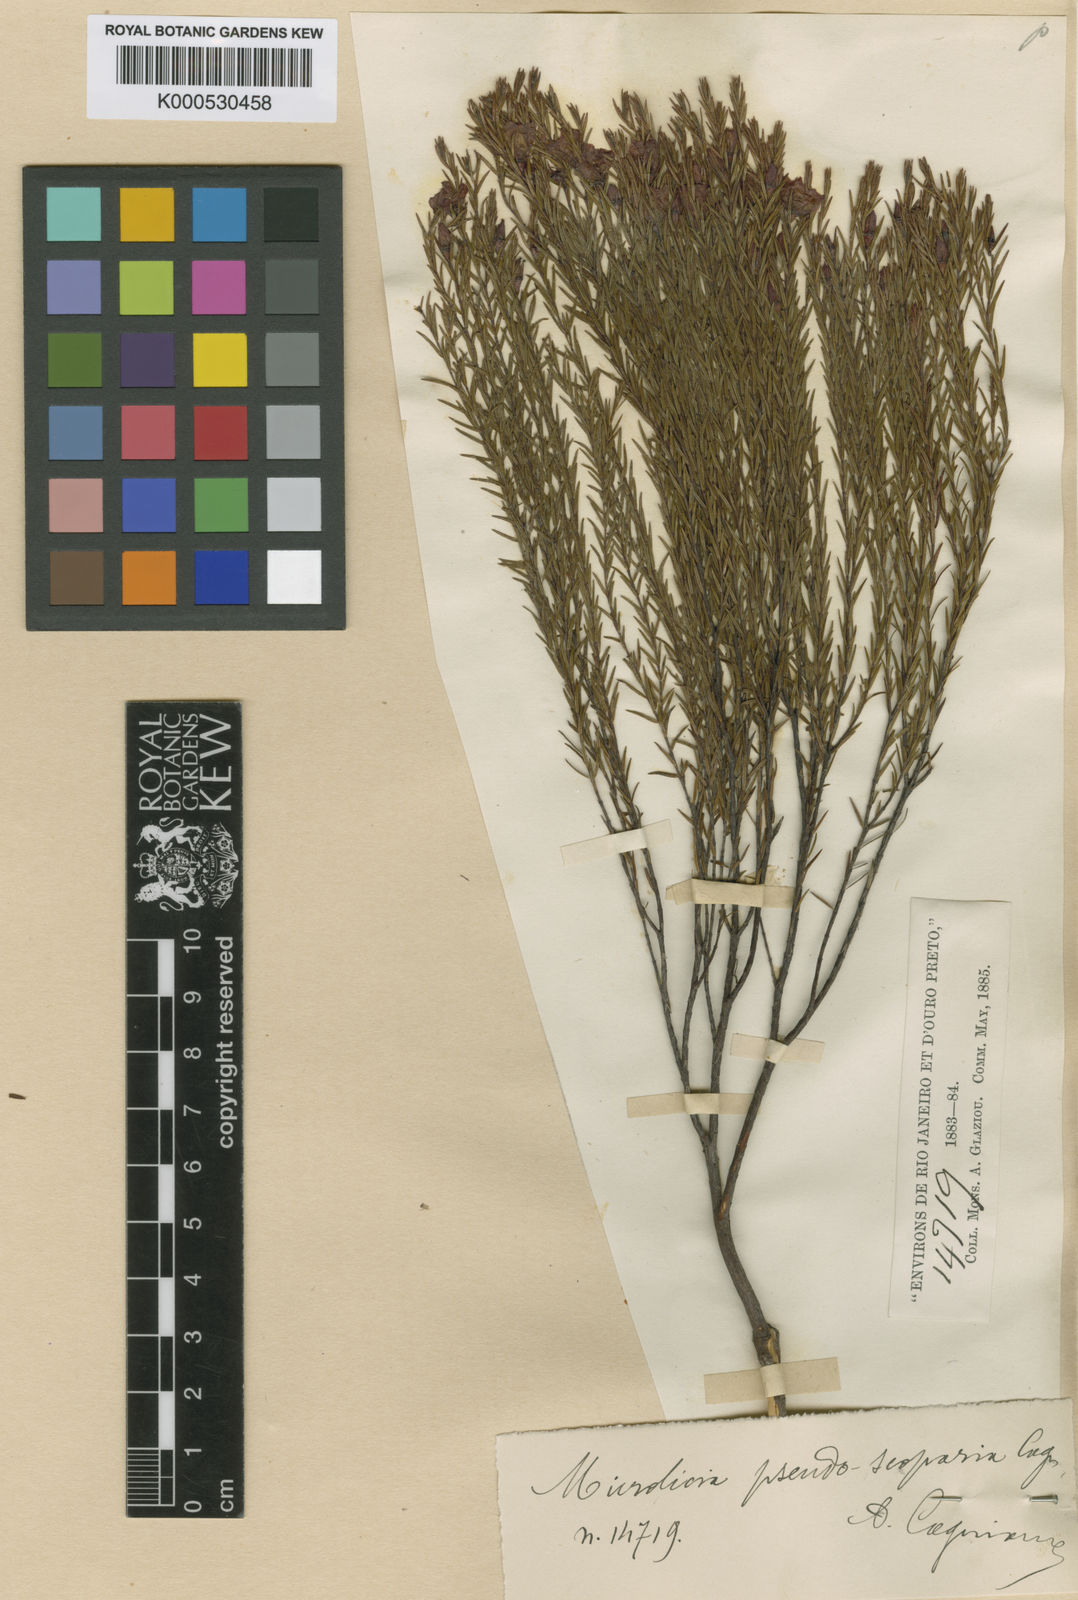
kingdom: Plantae
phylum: Tracheophyta
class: Magnoliopsida
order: Myrtales
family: Melastomataceae
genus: Microlicia
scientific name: Microlicia pseudoscoparia
